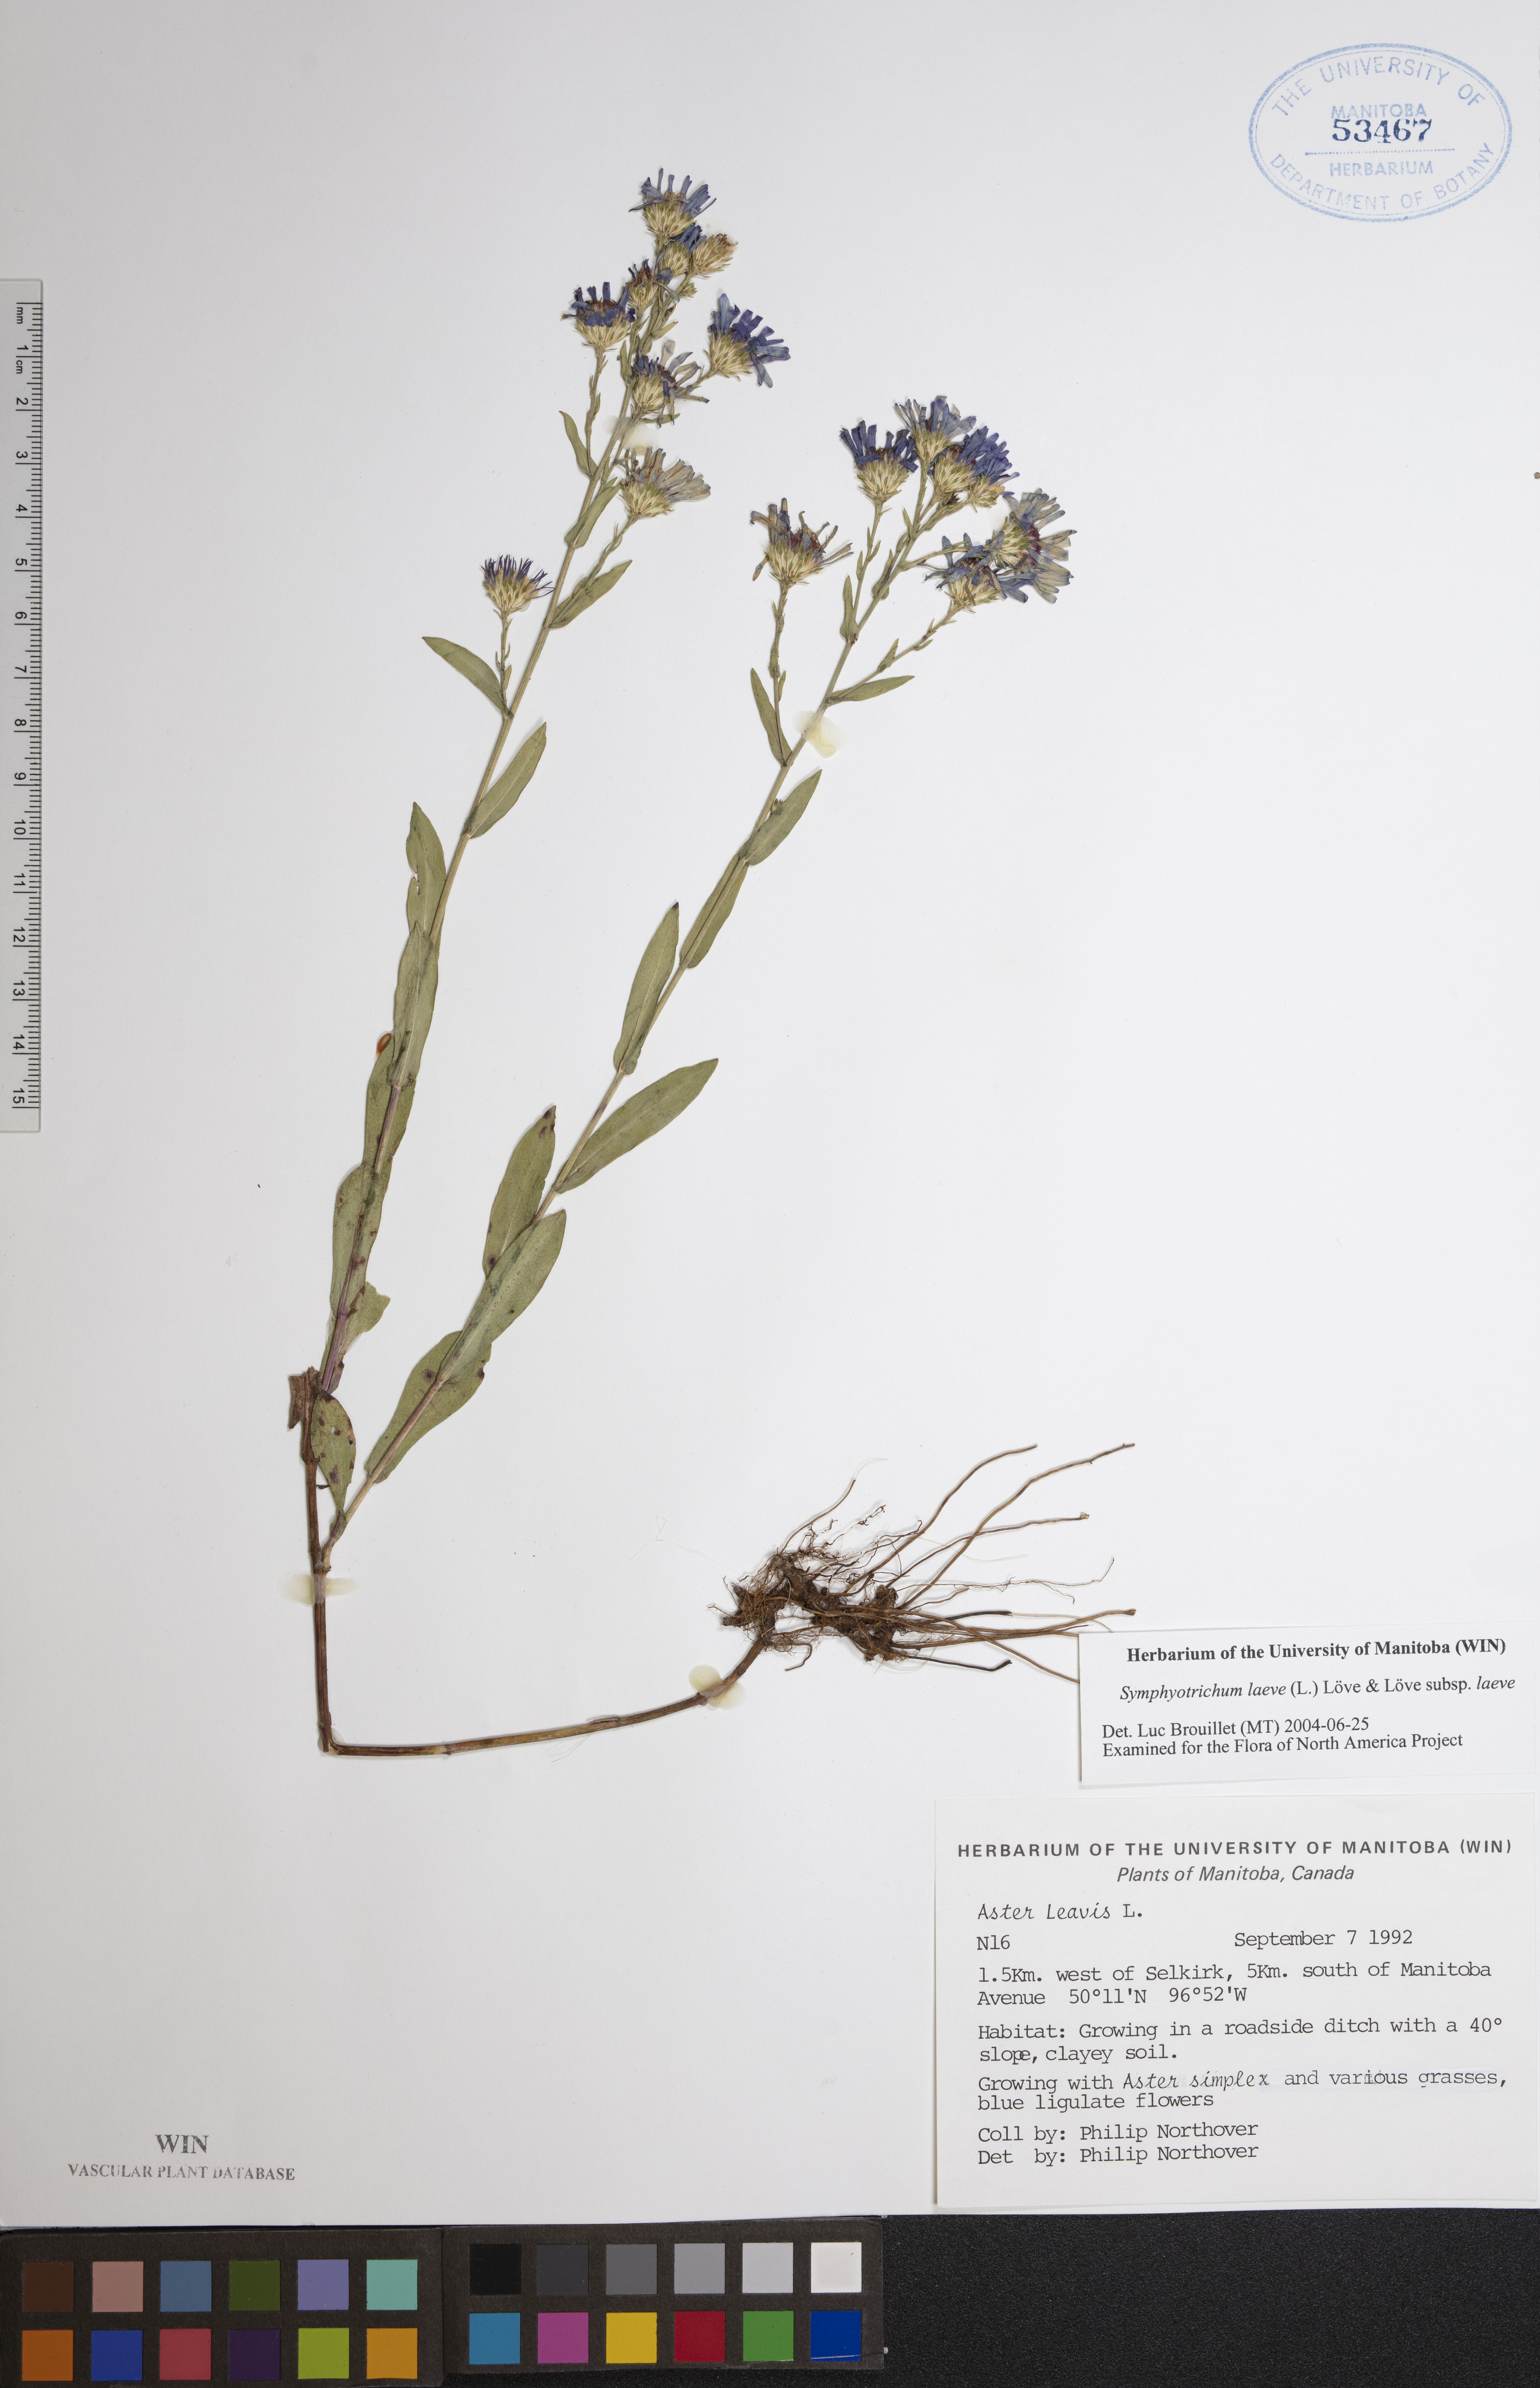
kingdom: Plantae
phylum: Tracheophyta
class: Magnoliopsida
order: Asterales
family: Asteraceae
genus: Symphyotrichum
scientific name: Symphyotrichum laeve
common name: Glaucous aster
